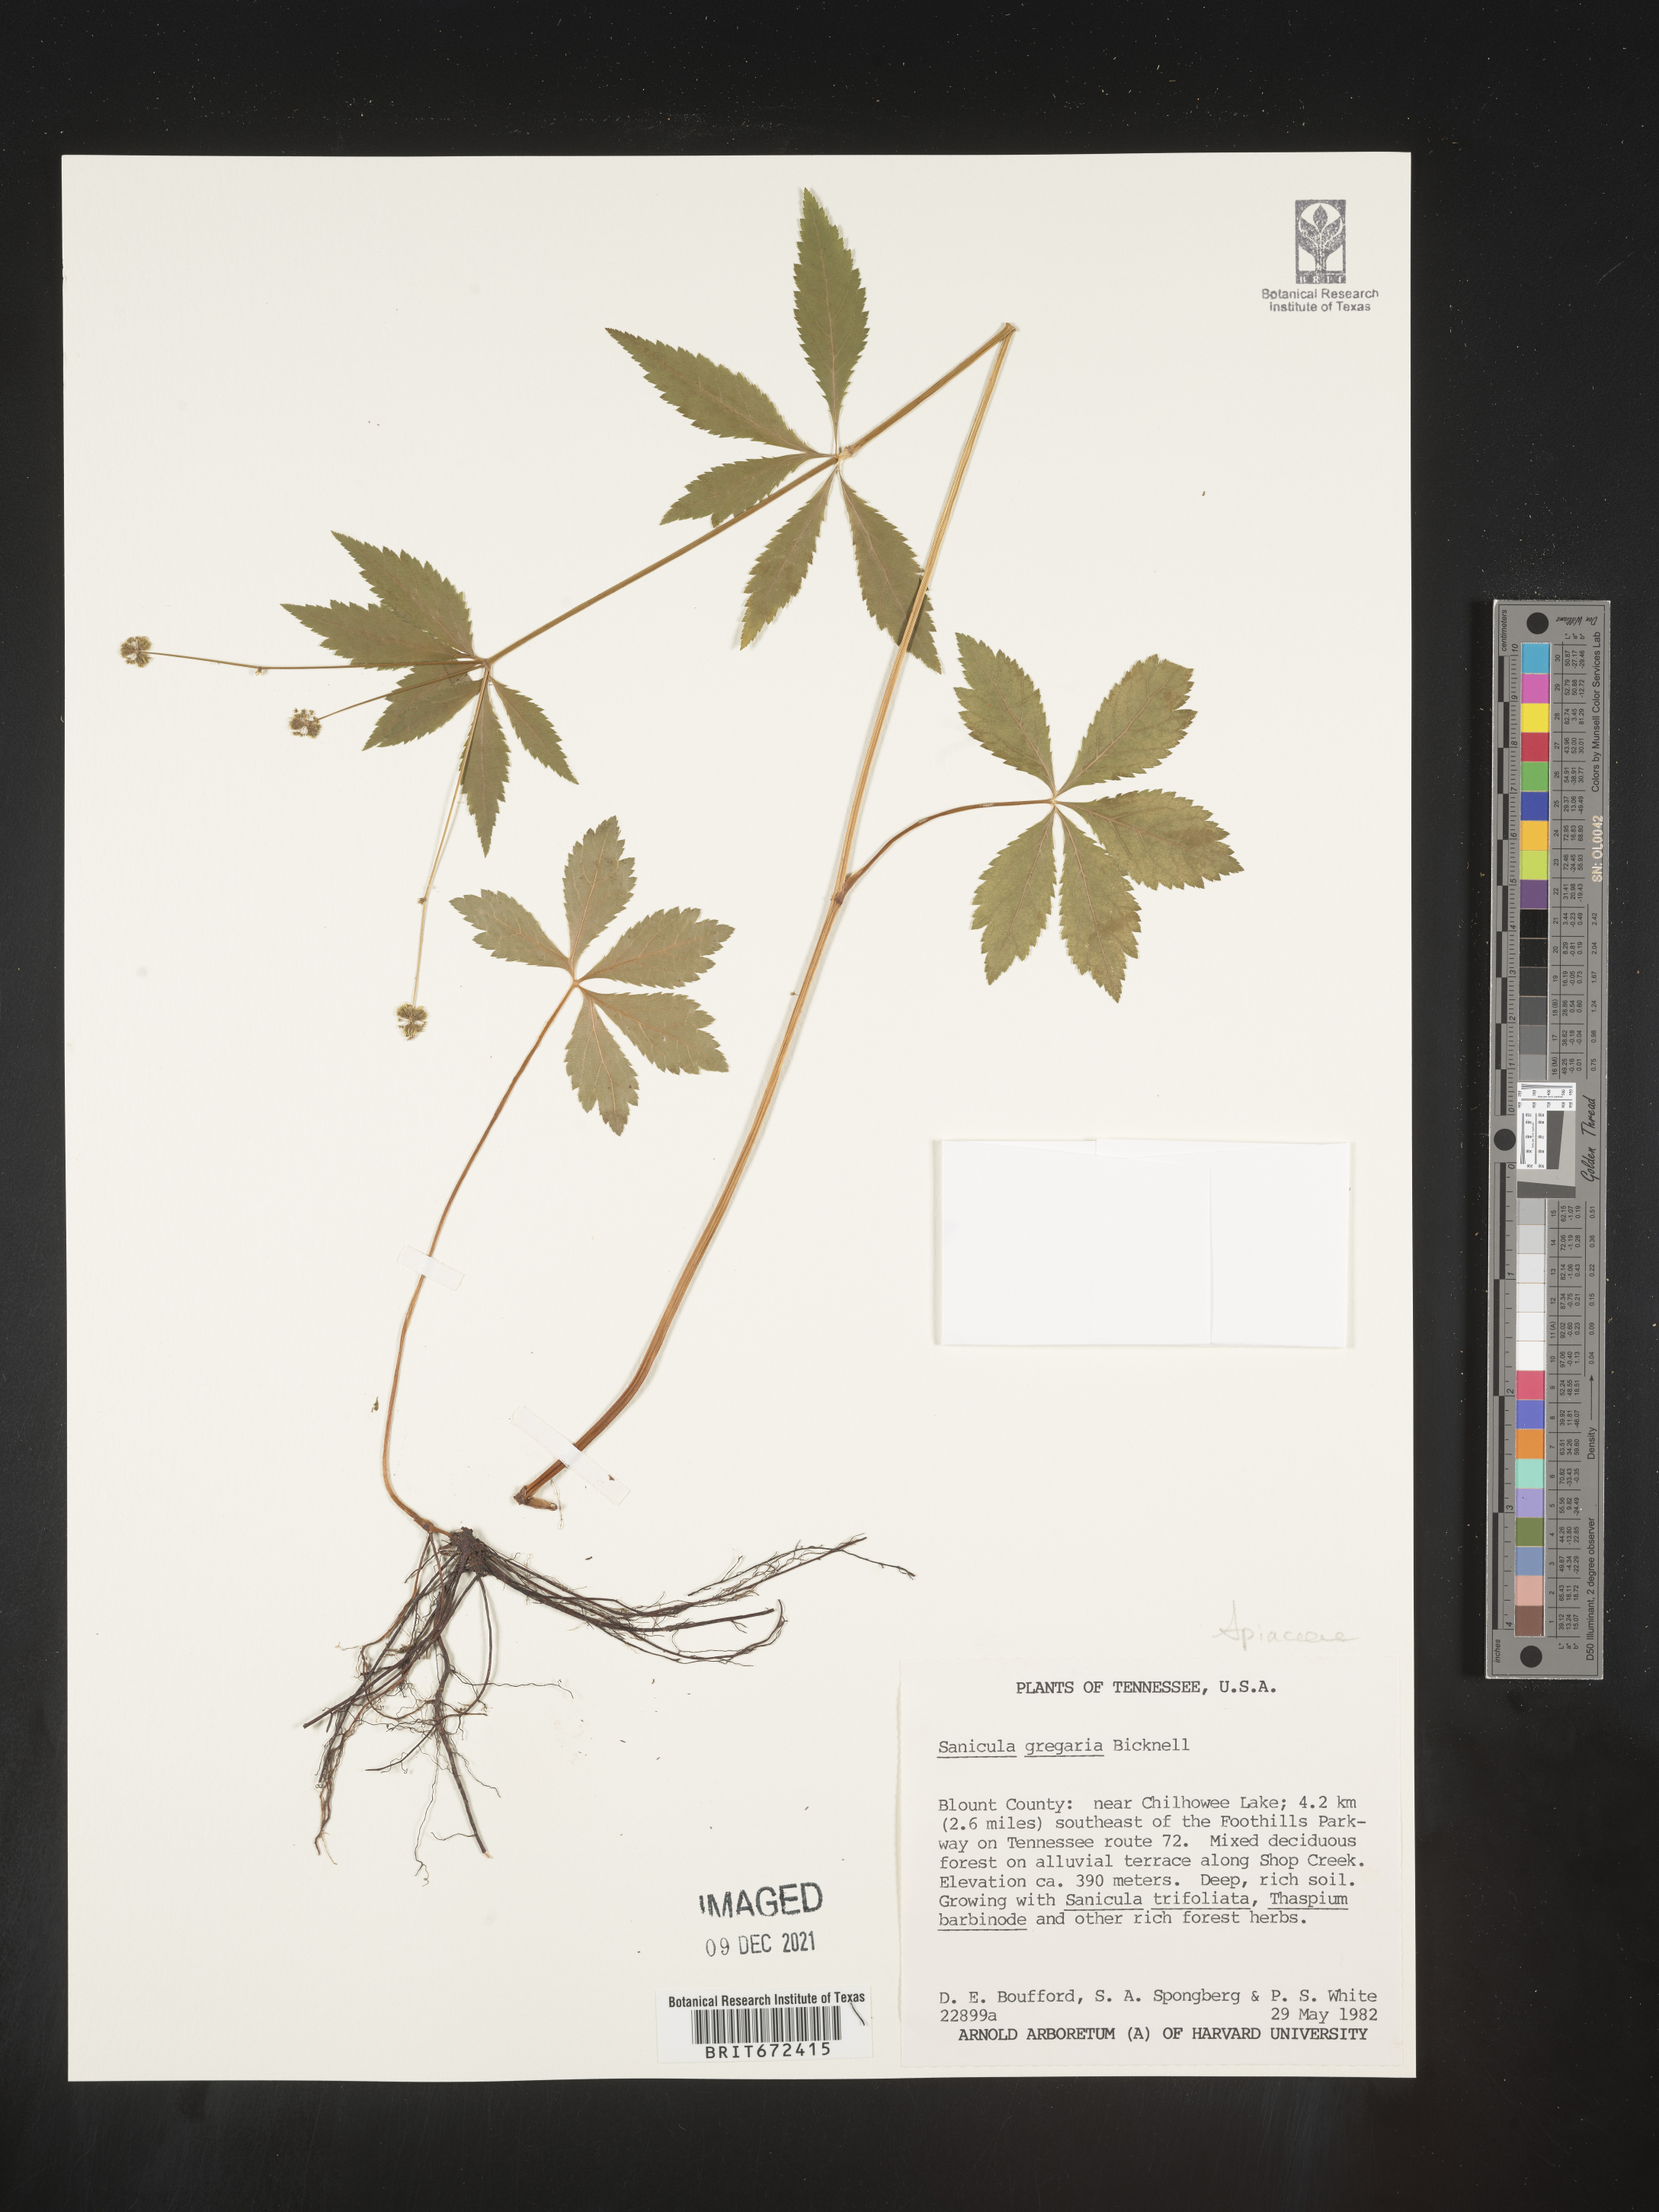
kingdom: Plantae
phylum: Tracheophyta
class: Magnoliopsida
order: Apiales
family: Apiaceae
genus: Sanicula
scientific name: Sanicula odorata
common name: Cluster sanicle
